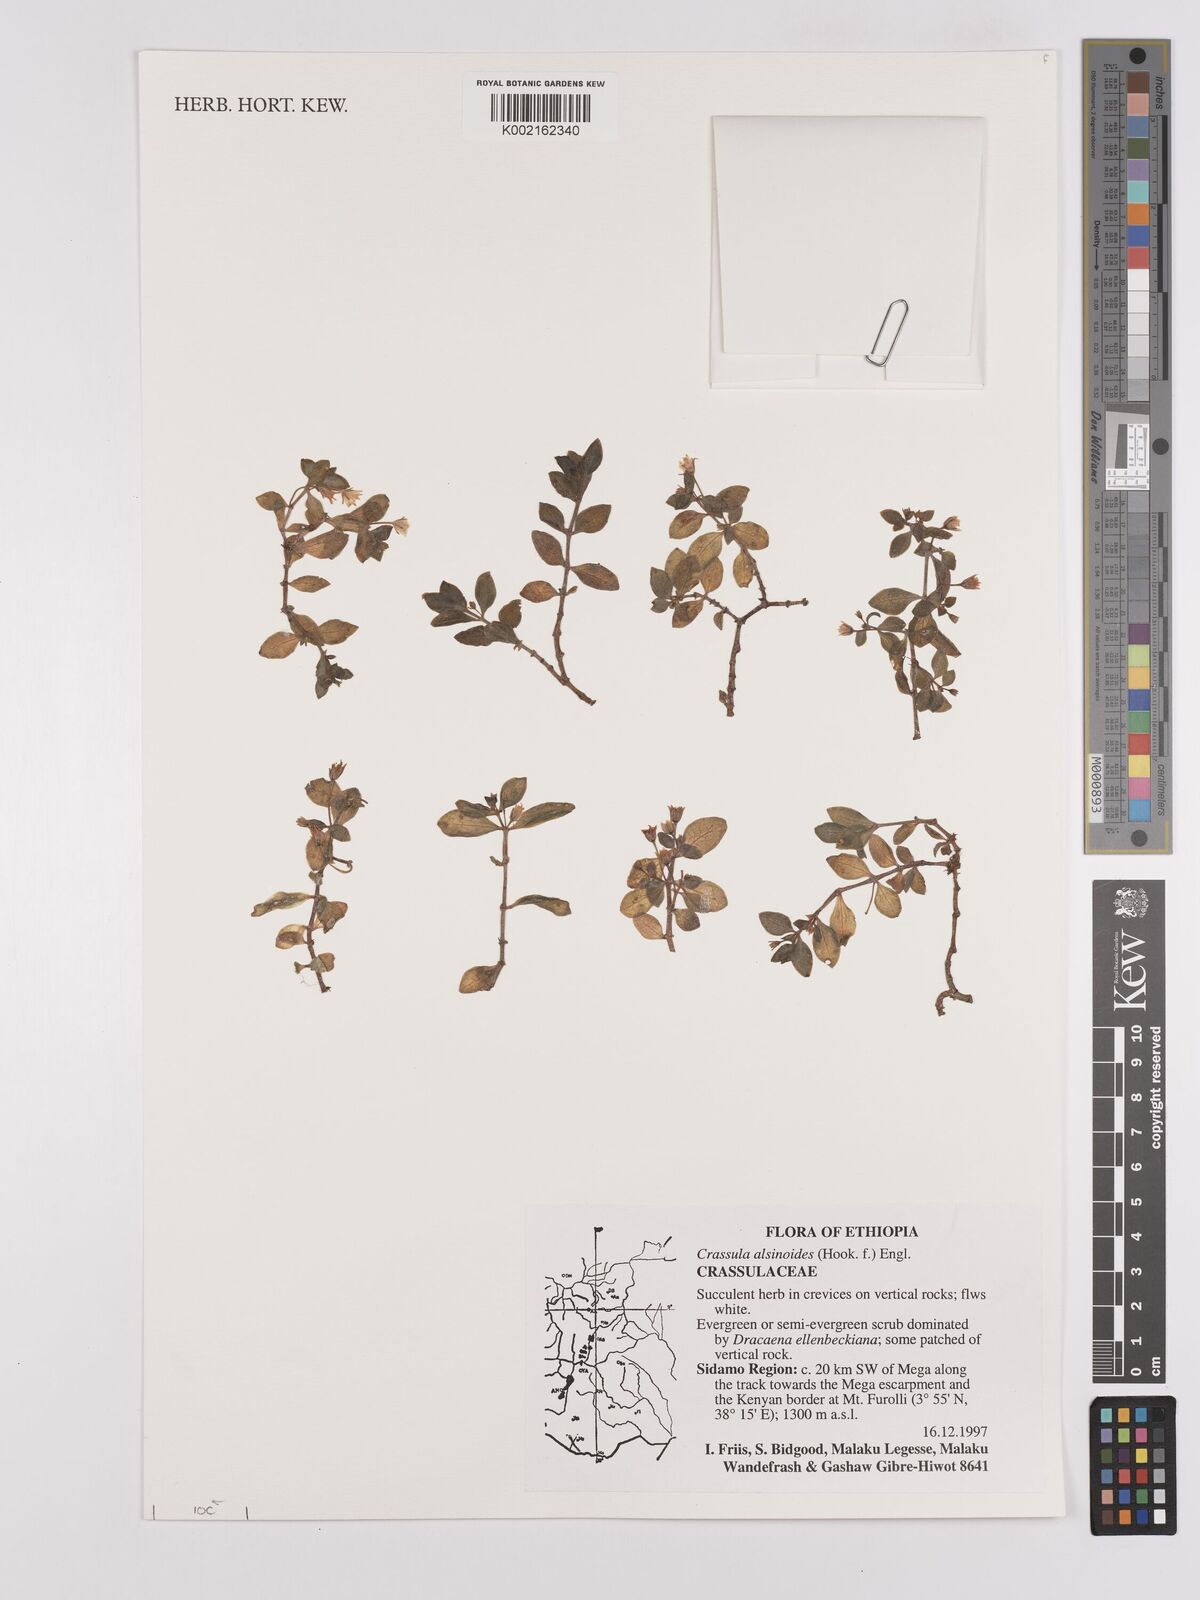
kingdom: Plantae
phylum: Tracheophyta
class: Magnoliopsida
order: Saxifragales
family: Crassulaceae
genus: Crassula
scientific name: Crassula alsinoides
